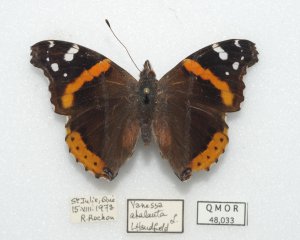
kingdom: Animalia
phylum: Arthropoda
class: Insecta
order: Lepidoptera
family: Nymphalidae
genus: Vanessa
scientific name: Vanessa atalanta
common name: Red Admiral
